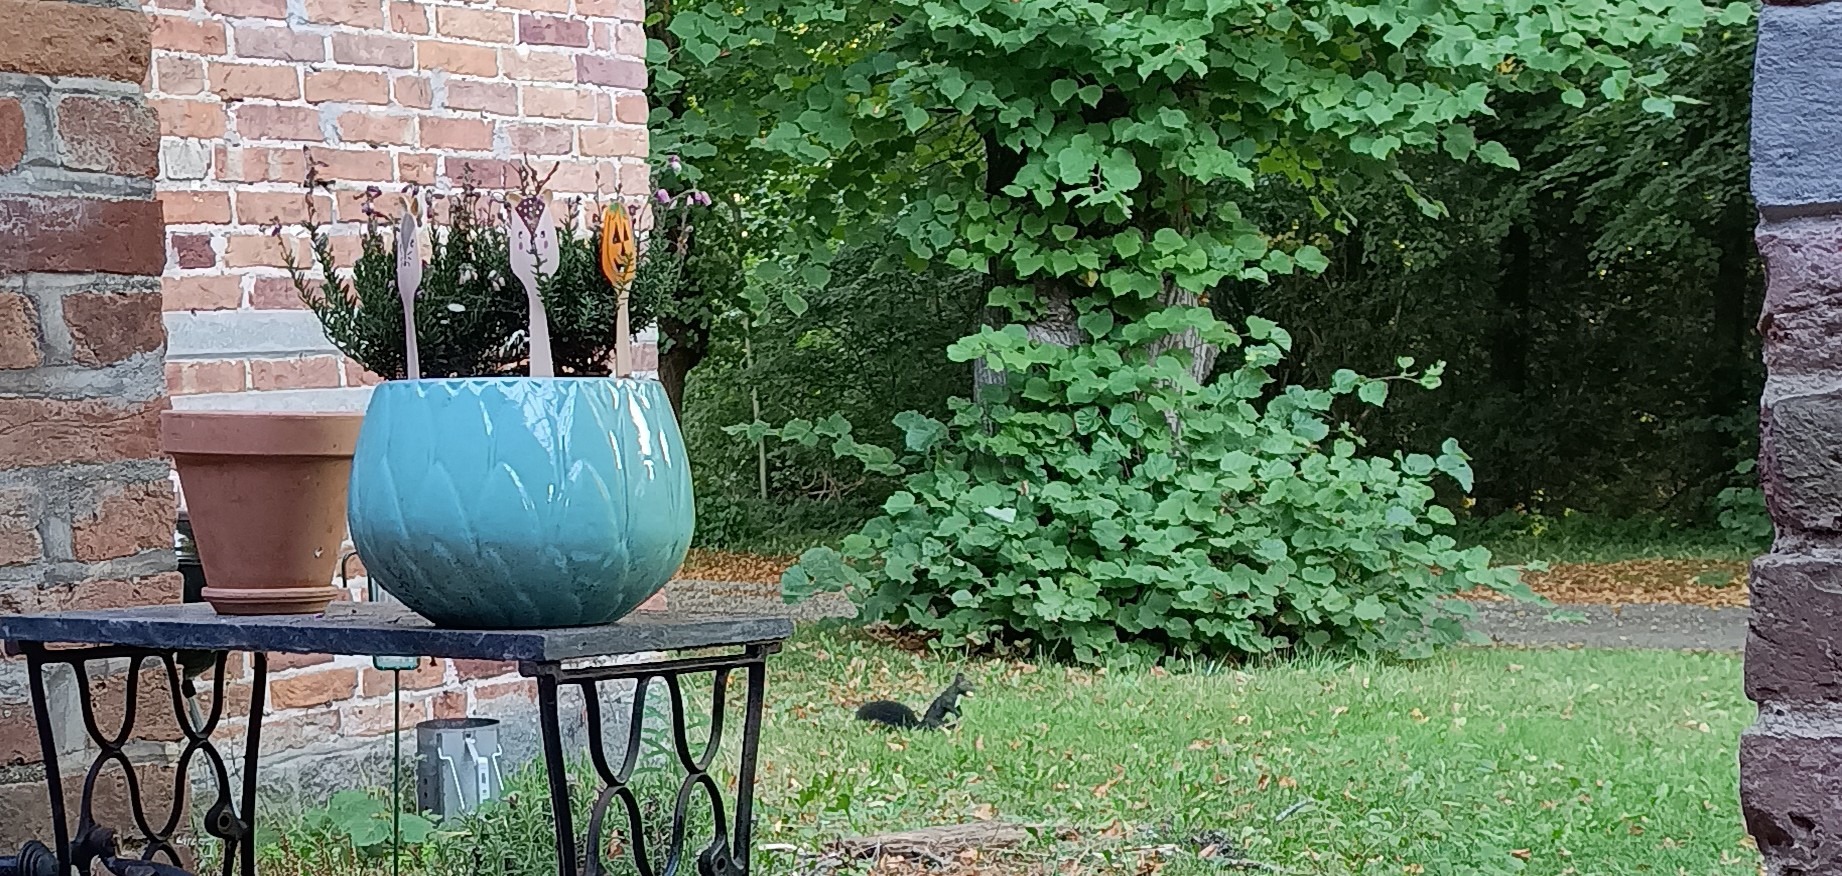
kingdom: Animalia
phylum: Chordata
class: Mammalia
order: Rodentia
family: Sciuridae
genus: Sciurus
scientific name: Sciurus vulgaris
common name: Egern
